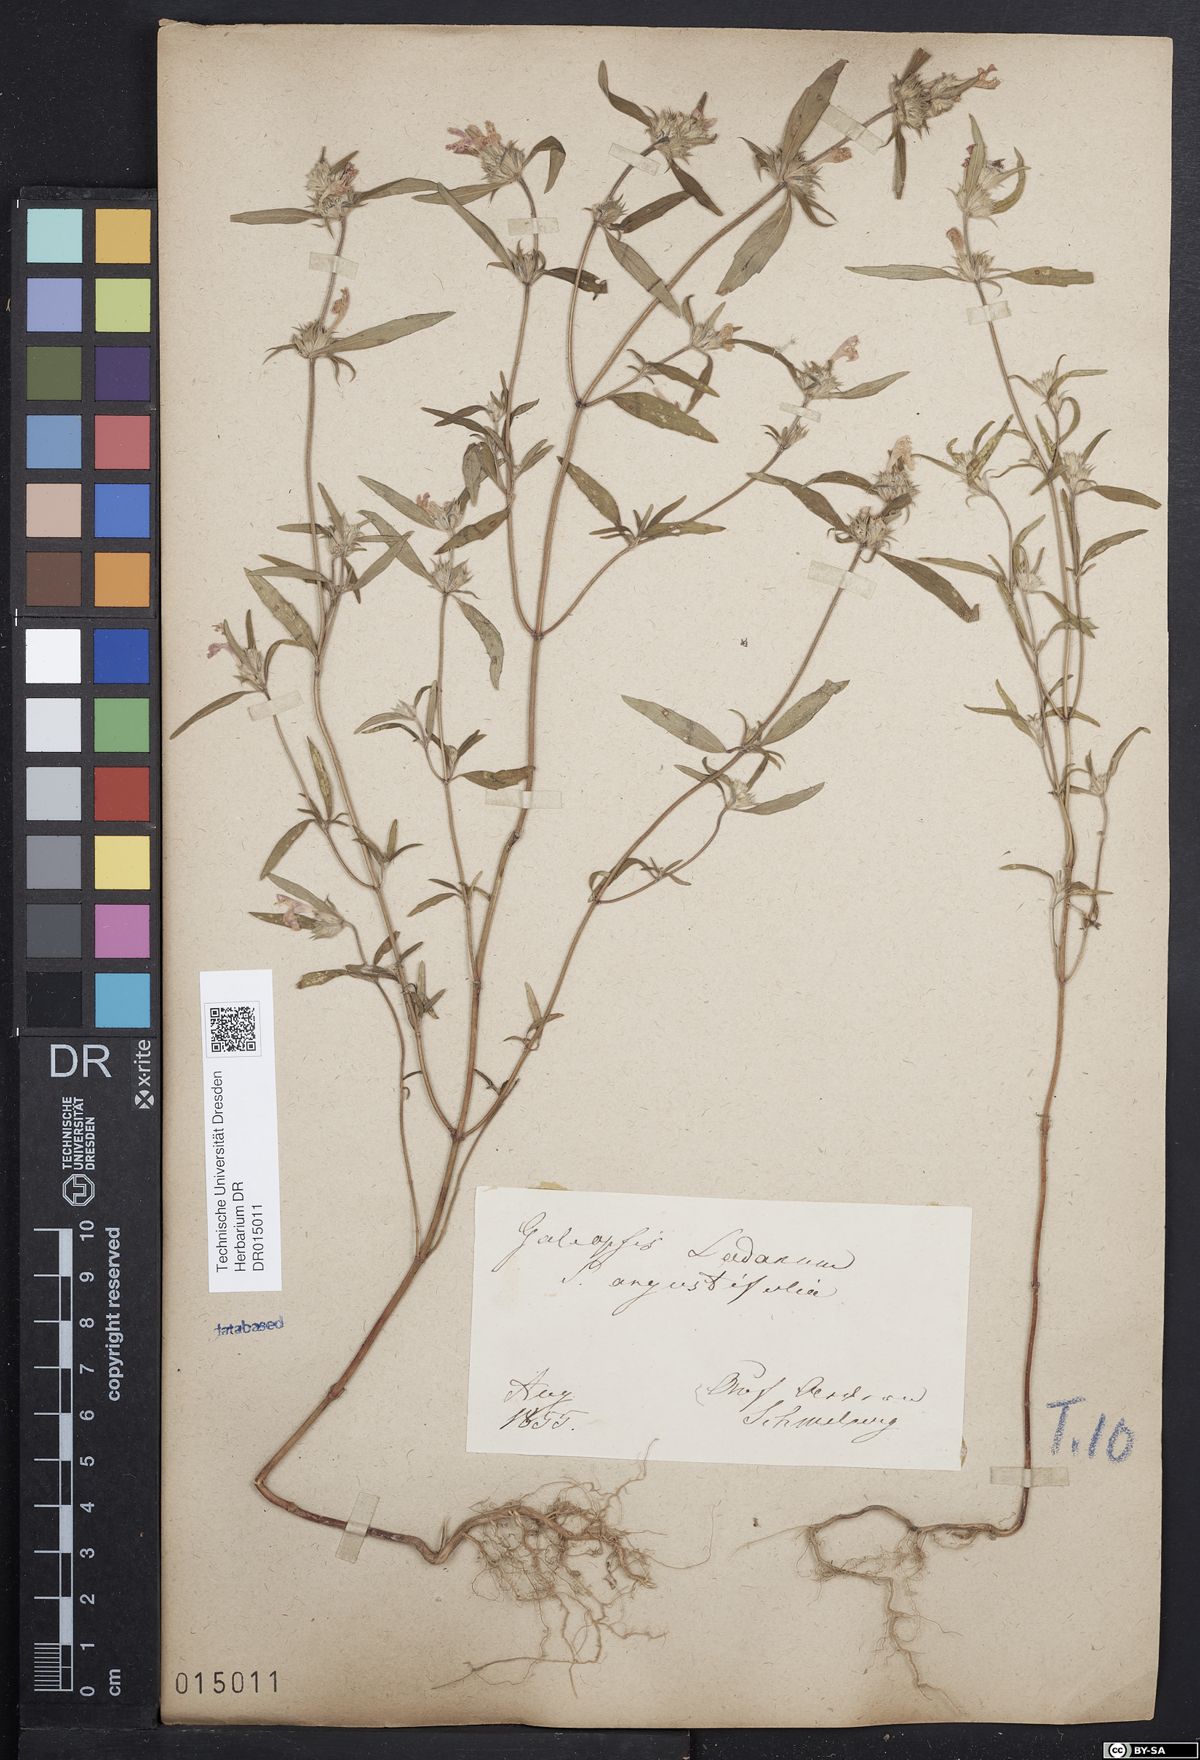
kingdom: Plantae
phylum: Tracheophyta
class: Magnoliopsida
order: Lamiales
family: Lamiaceae
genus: Galeopsis
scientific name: Galeopsis angustifolia
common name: Red hemp-nettle
